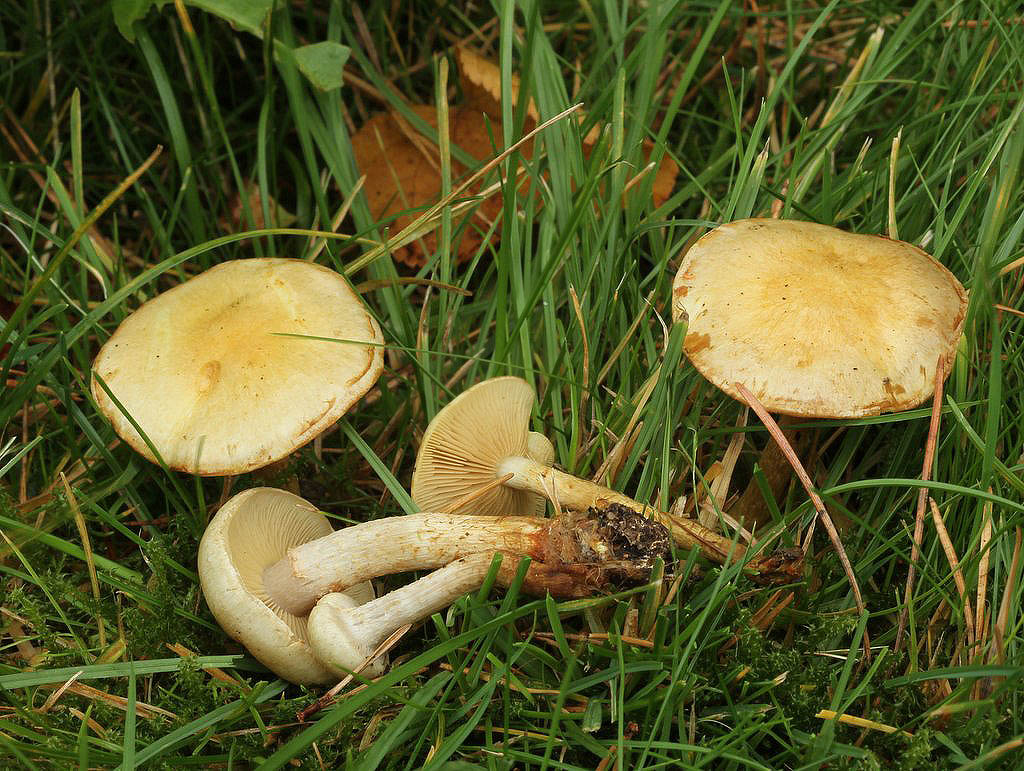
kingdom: Fungi
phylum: Basidiomycota
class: Agaricomycetes
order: Agaricales
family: Strophariaceae
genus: Pholiota
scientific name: Pholiota gummosa
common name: grøngul skælhat
